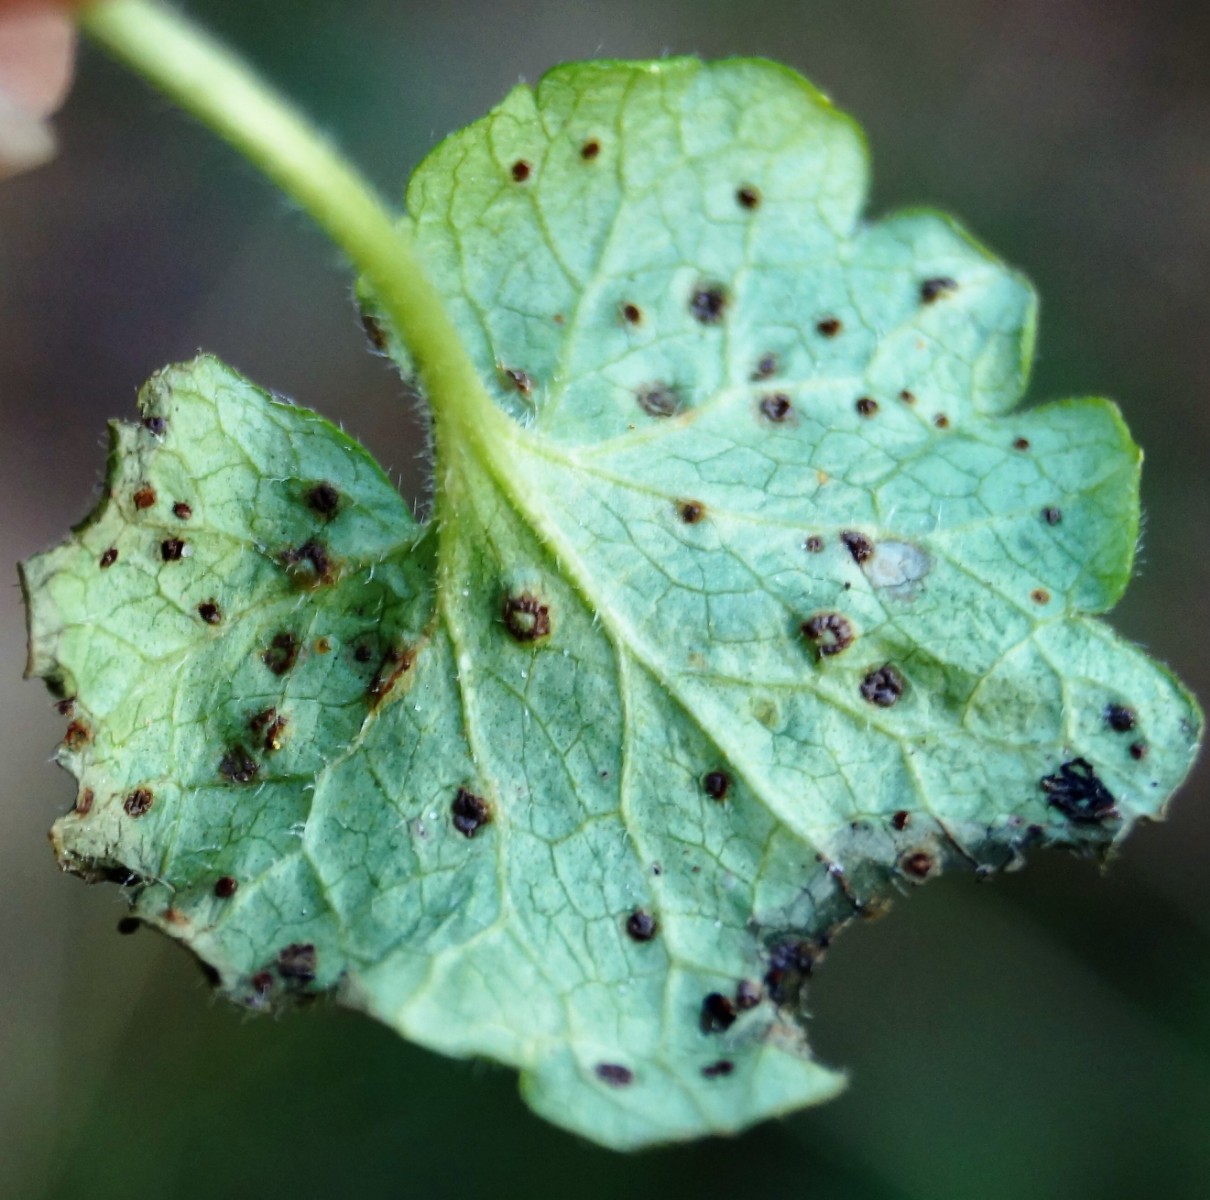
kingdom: Fungi
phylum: Basidiomycota
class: Pucciniomycetes
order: Pucciniales
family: Pucciniaceae
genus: Puccinia
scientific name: Puccinia glechomatis
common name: Ground ivy rust
